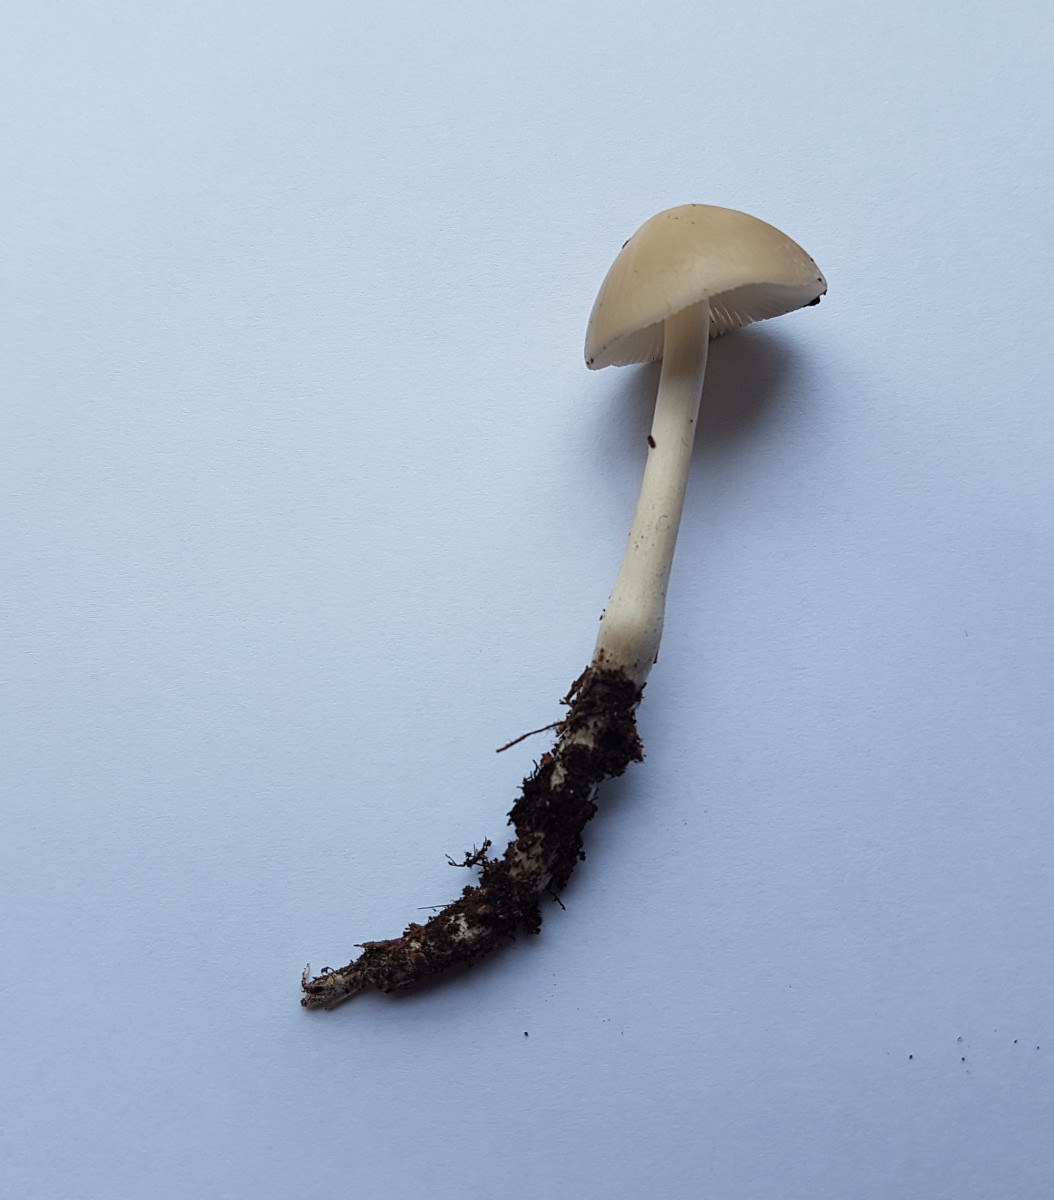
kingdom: Fungi
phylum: Basidiomycota
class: Agaricomycetes
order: Agaricales
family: Physalacriaceae
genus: Hymenopellis
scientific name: Hymenopellis radicata
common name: almindelig pælerodshat
